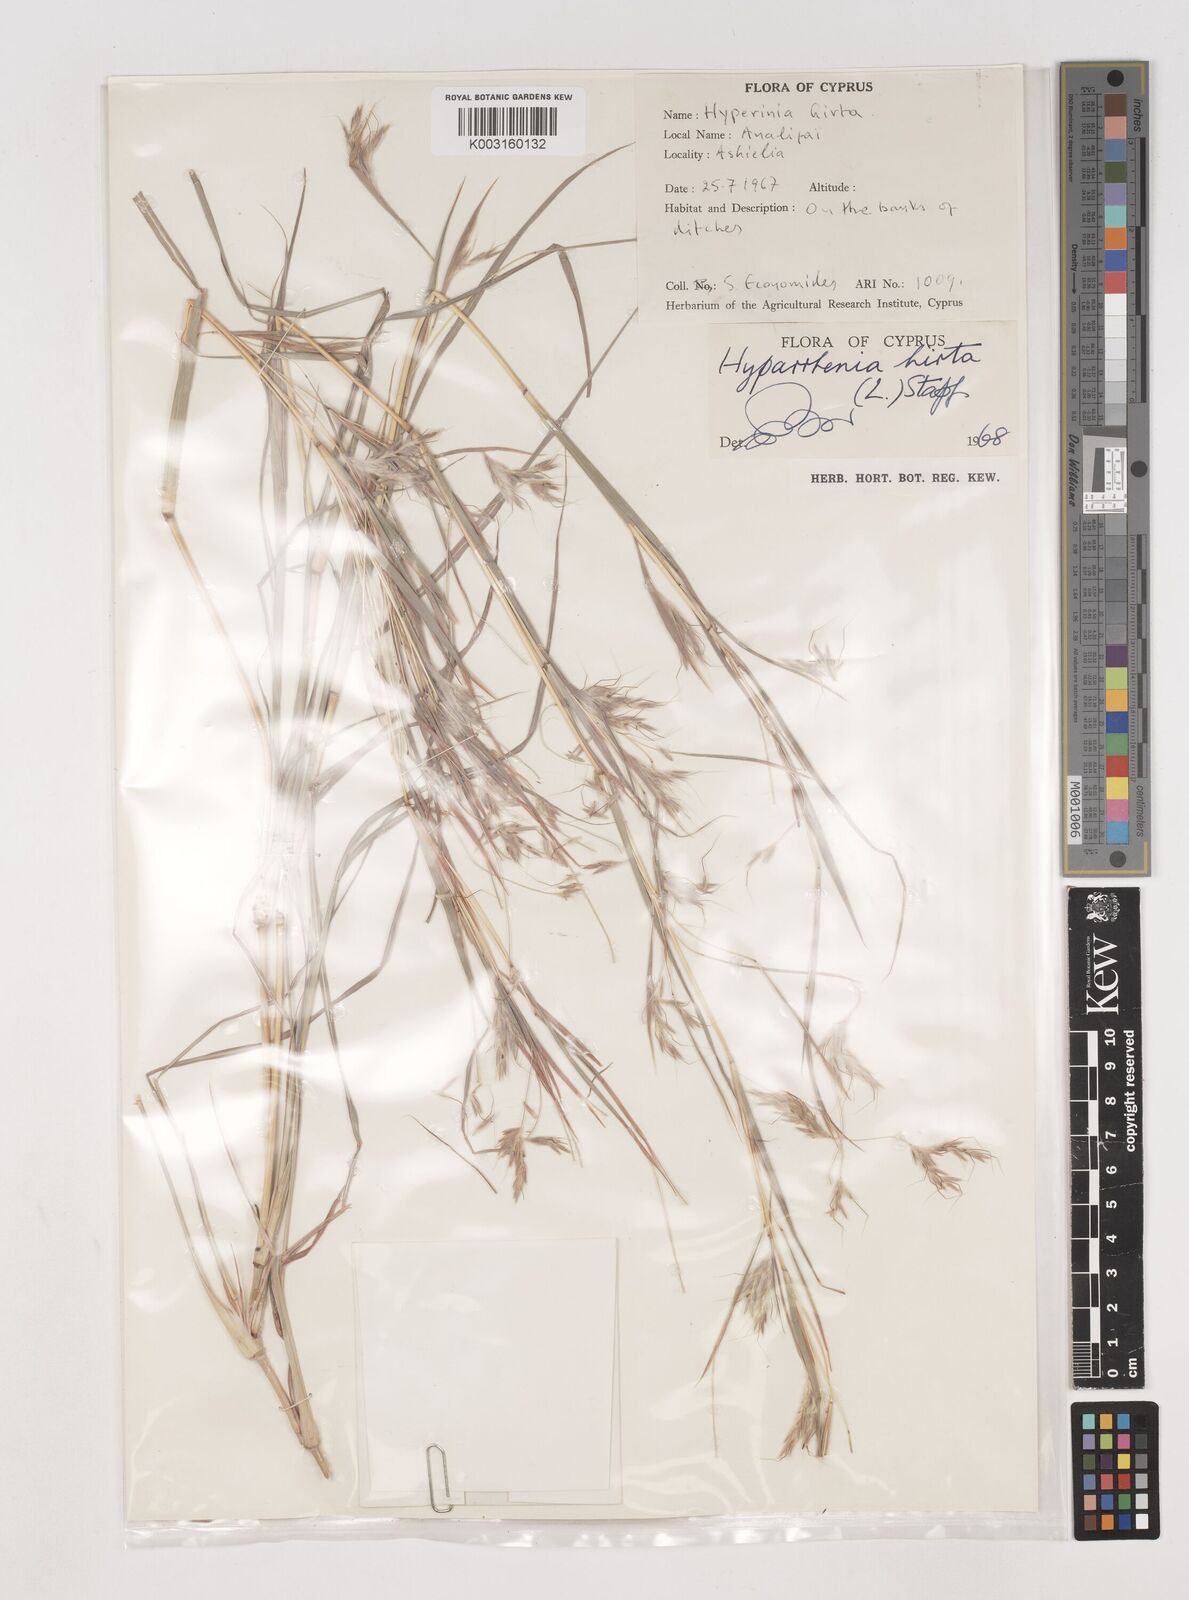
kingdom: Plantae
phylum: Tracheophyta
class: Liliopsida
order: Poales
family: Poaceae
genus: Hyparrhenia
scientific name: Hyparrhenia hirta
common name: Thatching grass
